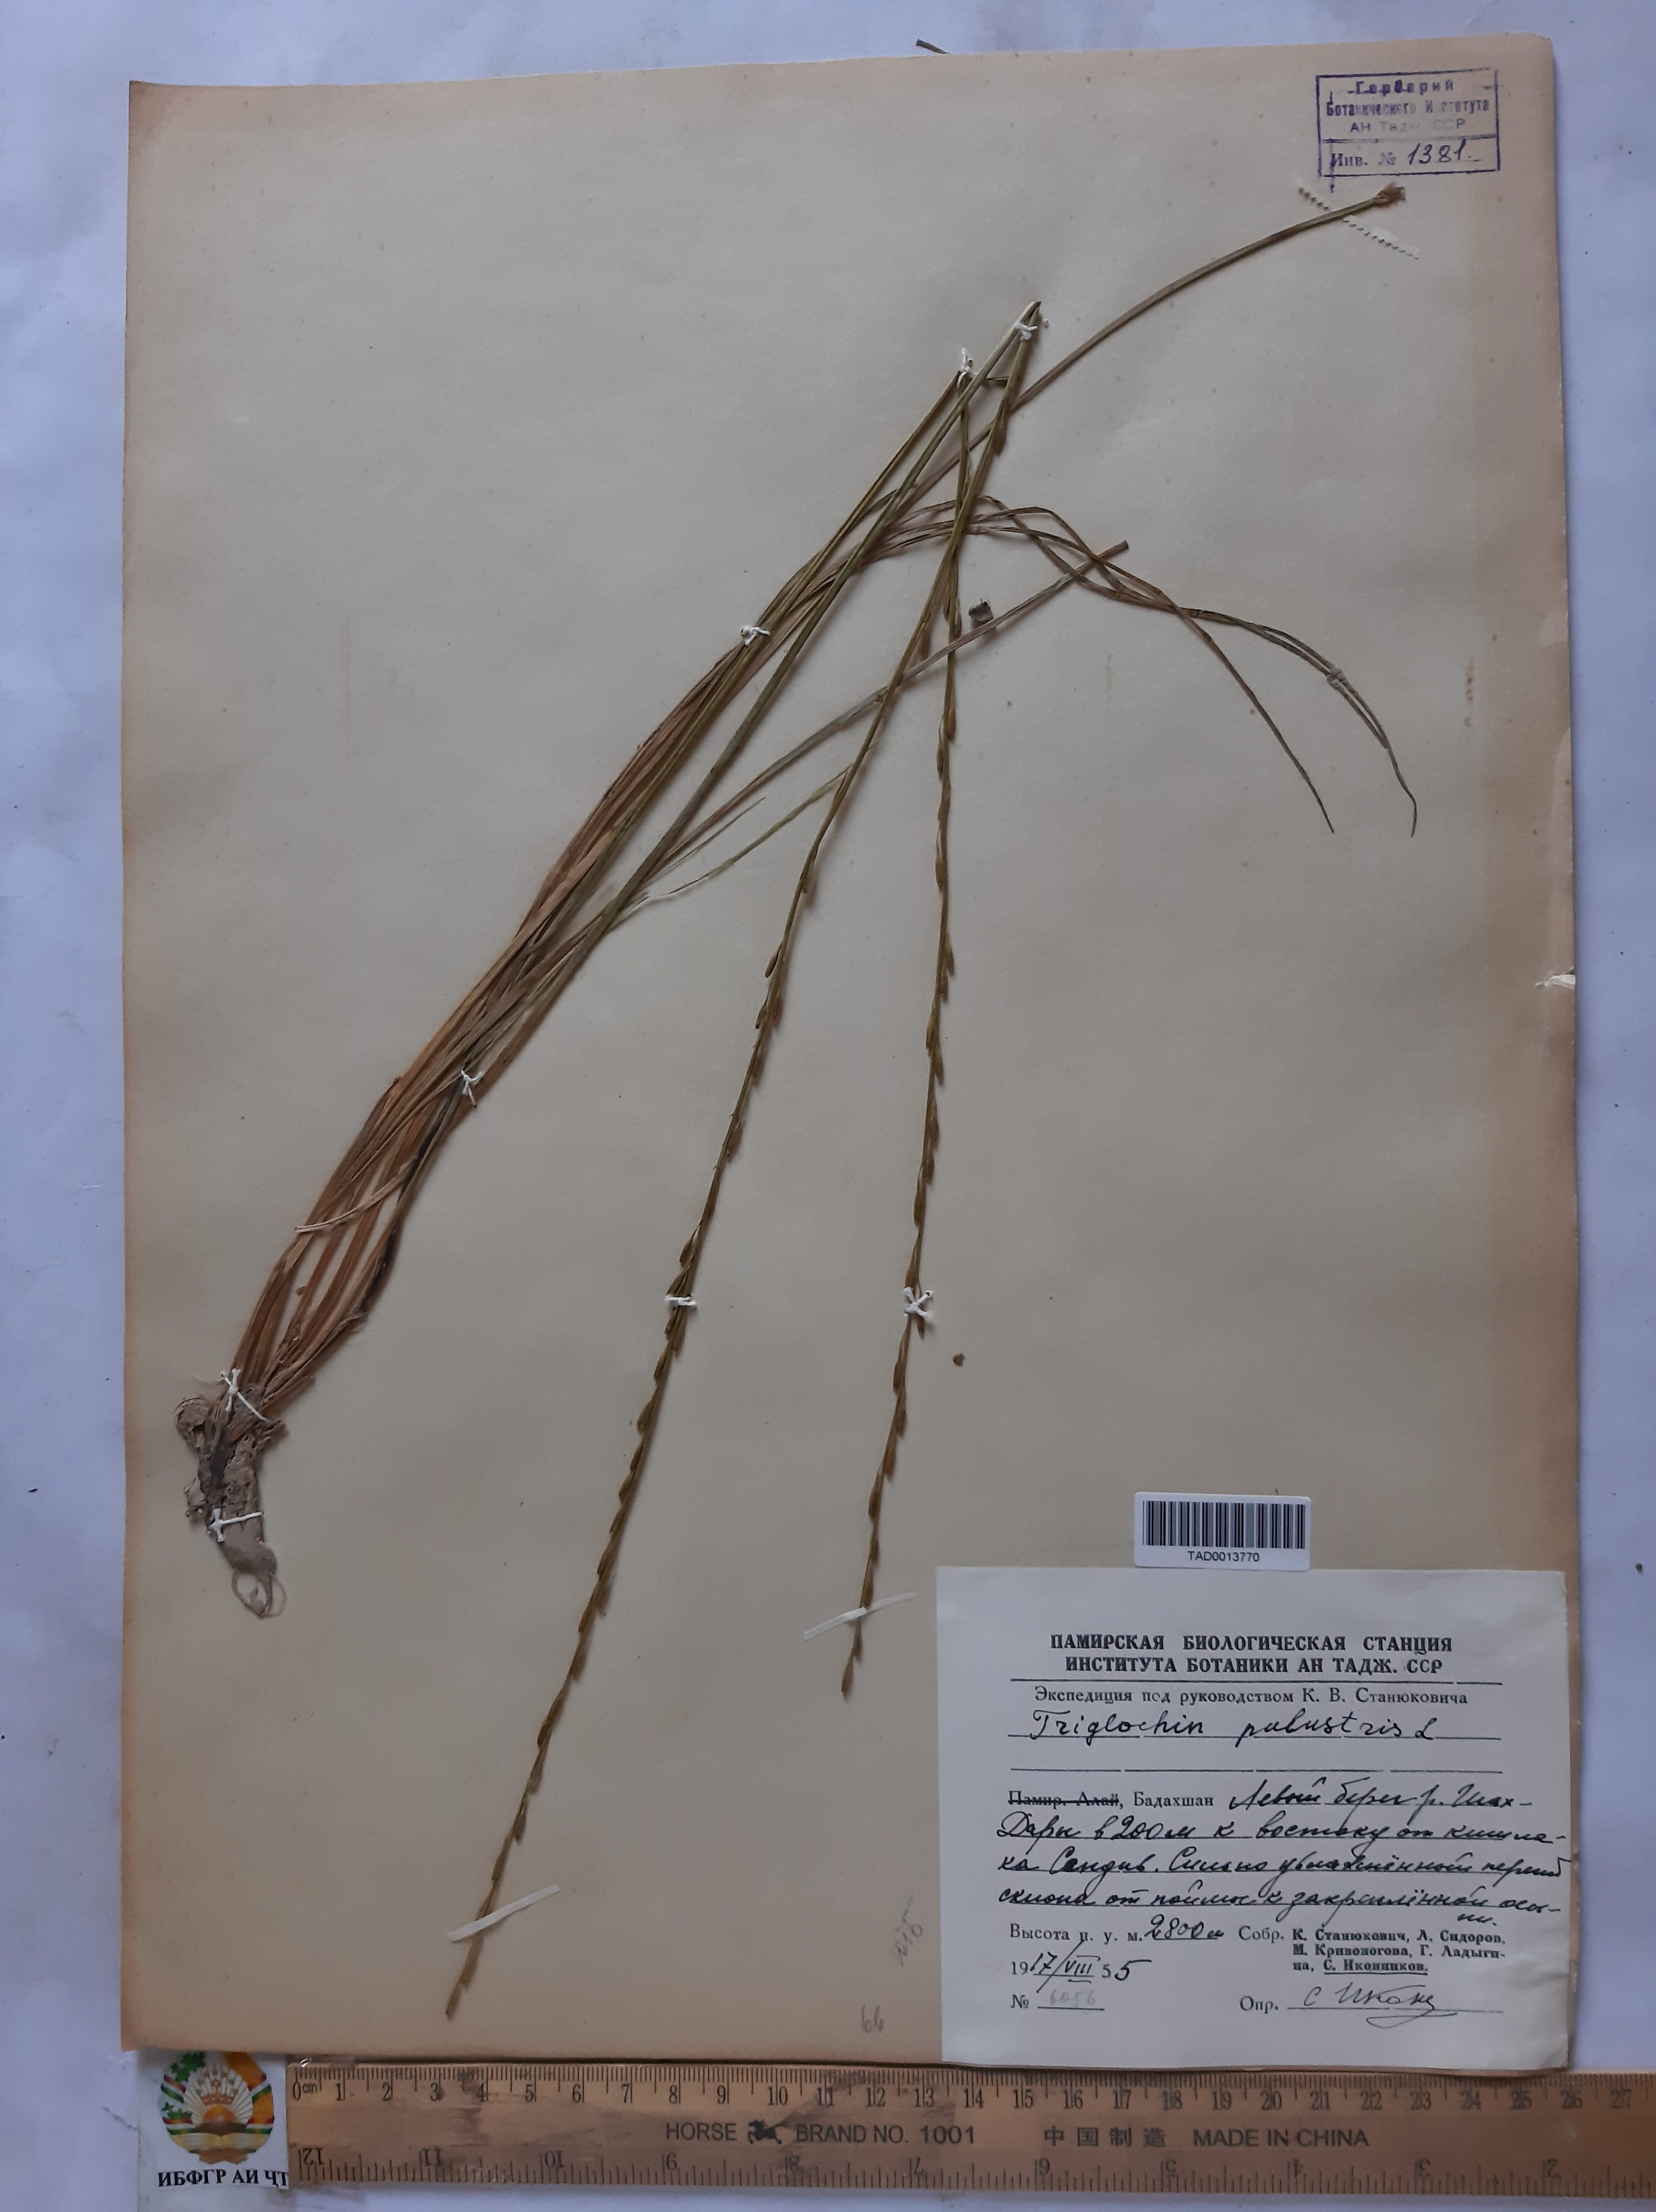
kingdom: Plantae
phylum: Tracheophyta
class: Liliopsida
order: Alismatales
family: Juncaginaceae
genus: Triglochin
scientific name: Triglochin palustris
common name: Marsh arrowgrass
